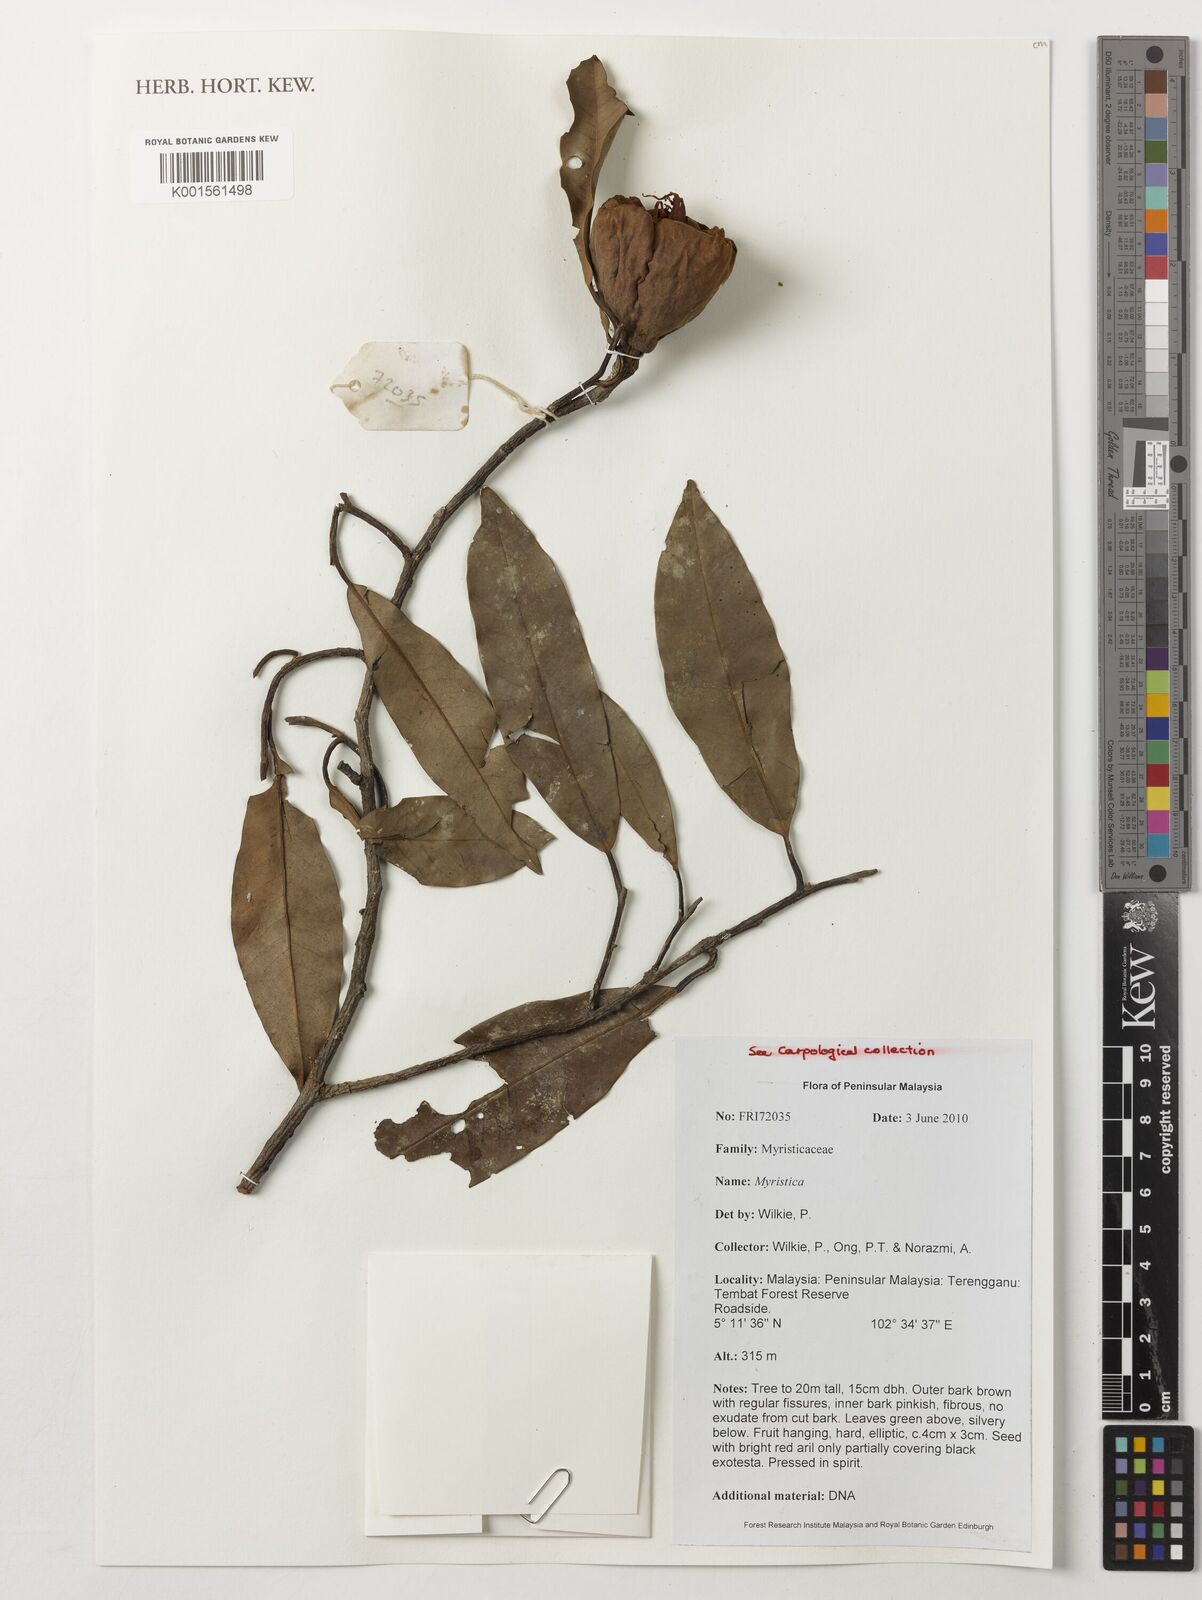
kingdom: Plantae
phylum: Tracheophyta
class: Magnoliopsida
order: Magnoliales
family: Myristicaceae
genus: Myristica
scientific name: Myristica
